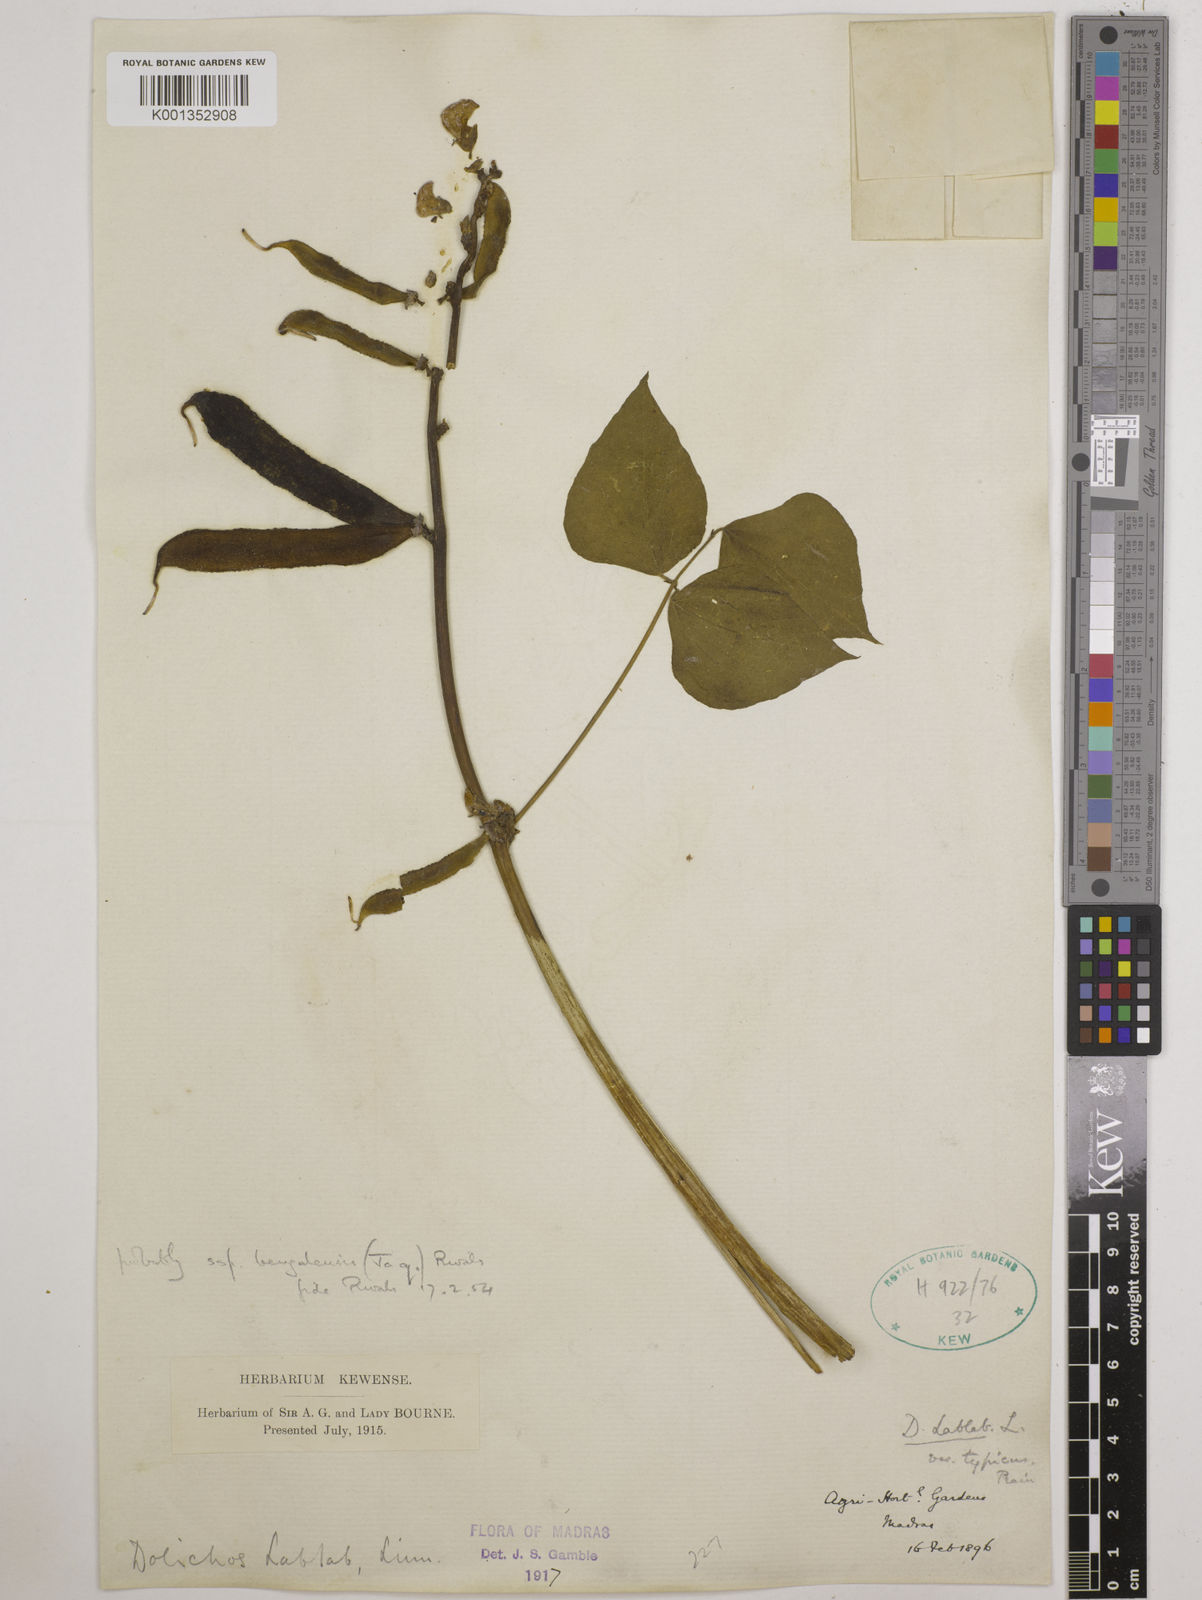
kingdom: Plantae
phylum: Tracheophyta
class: Magnoliopsida
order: Fabales
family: Fabaceae
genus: Lablab
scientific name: Lablab purpureus
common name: Lablab-bean
